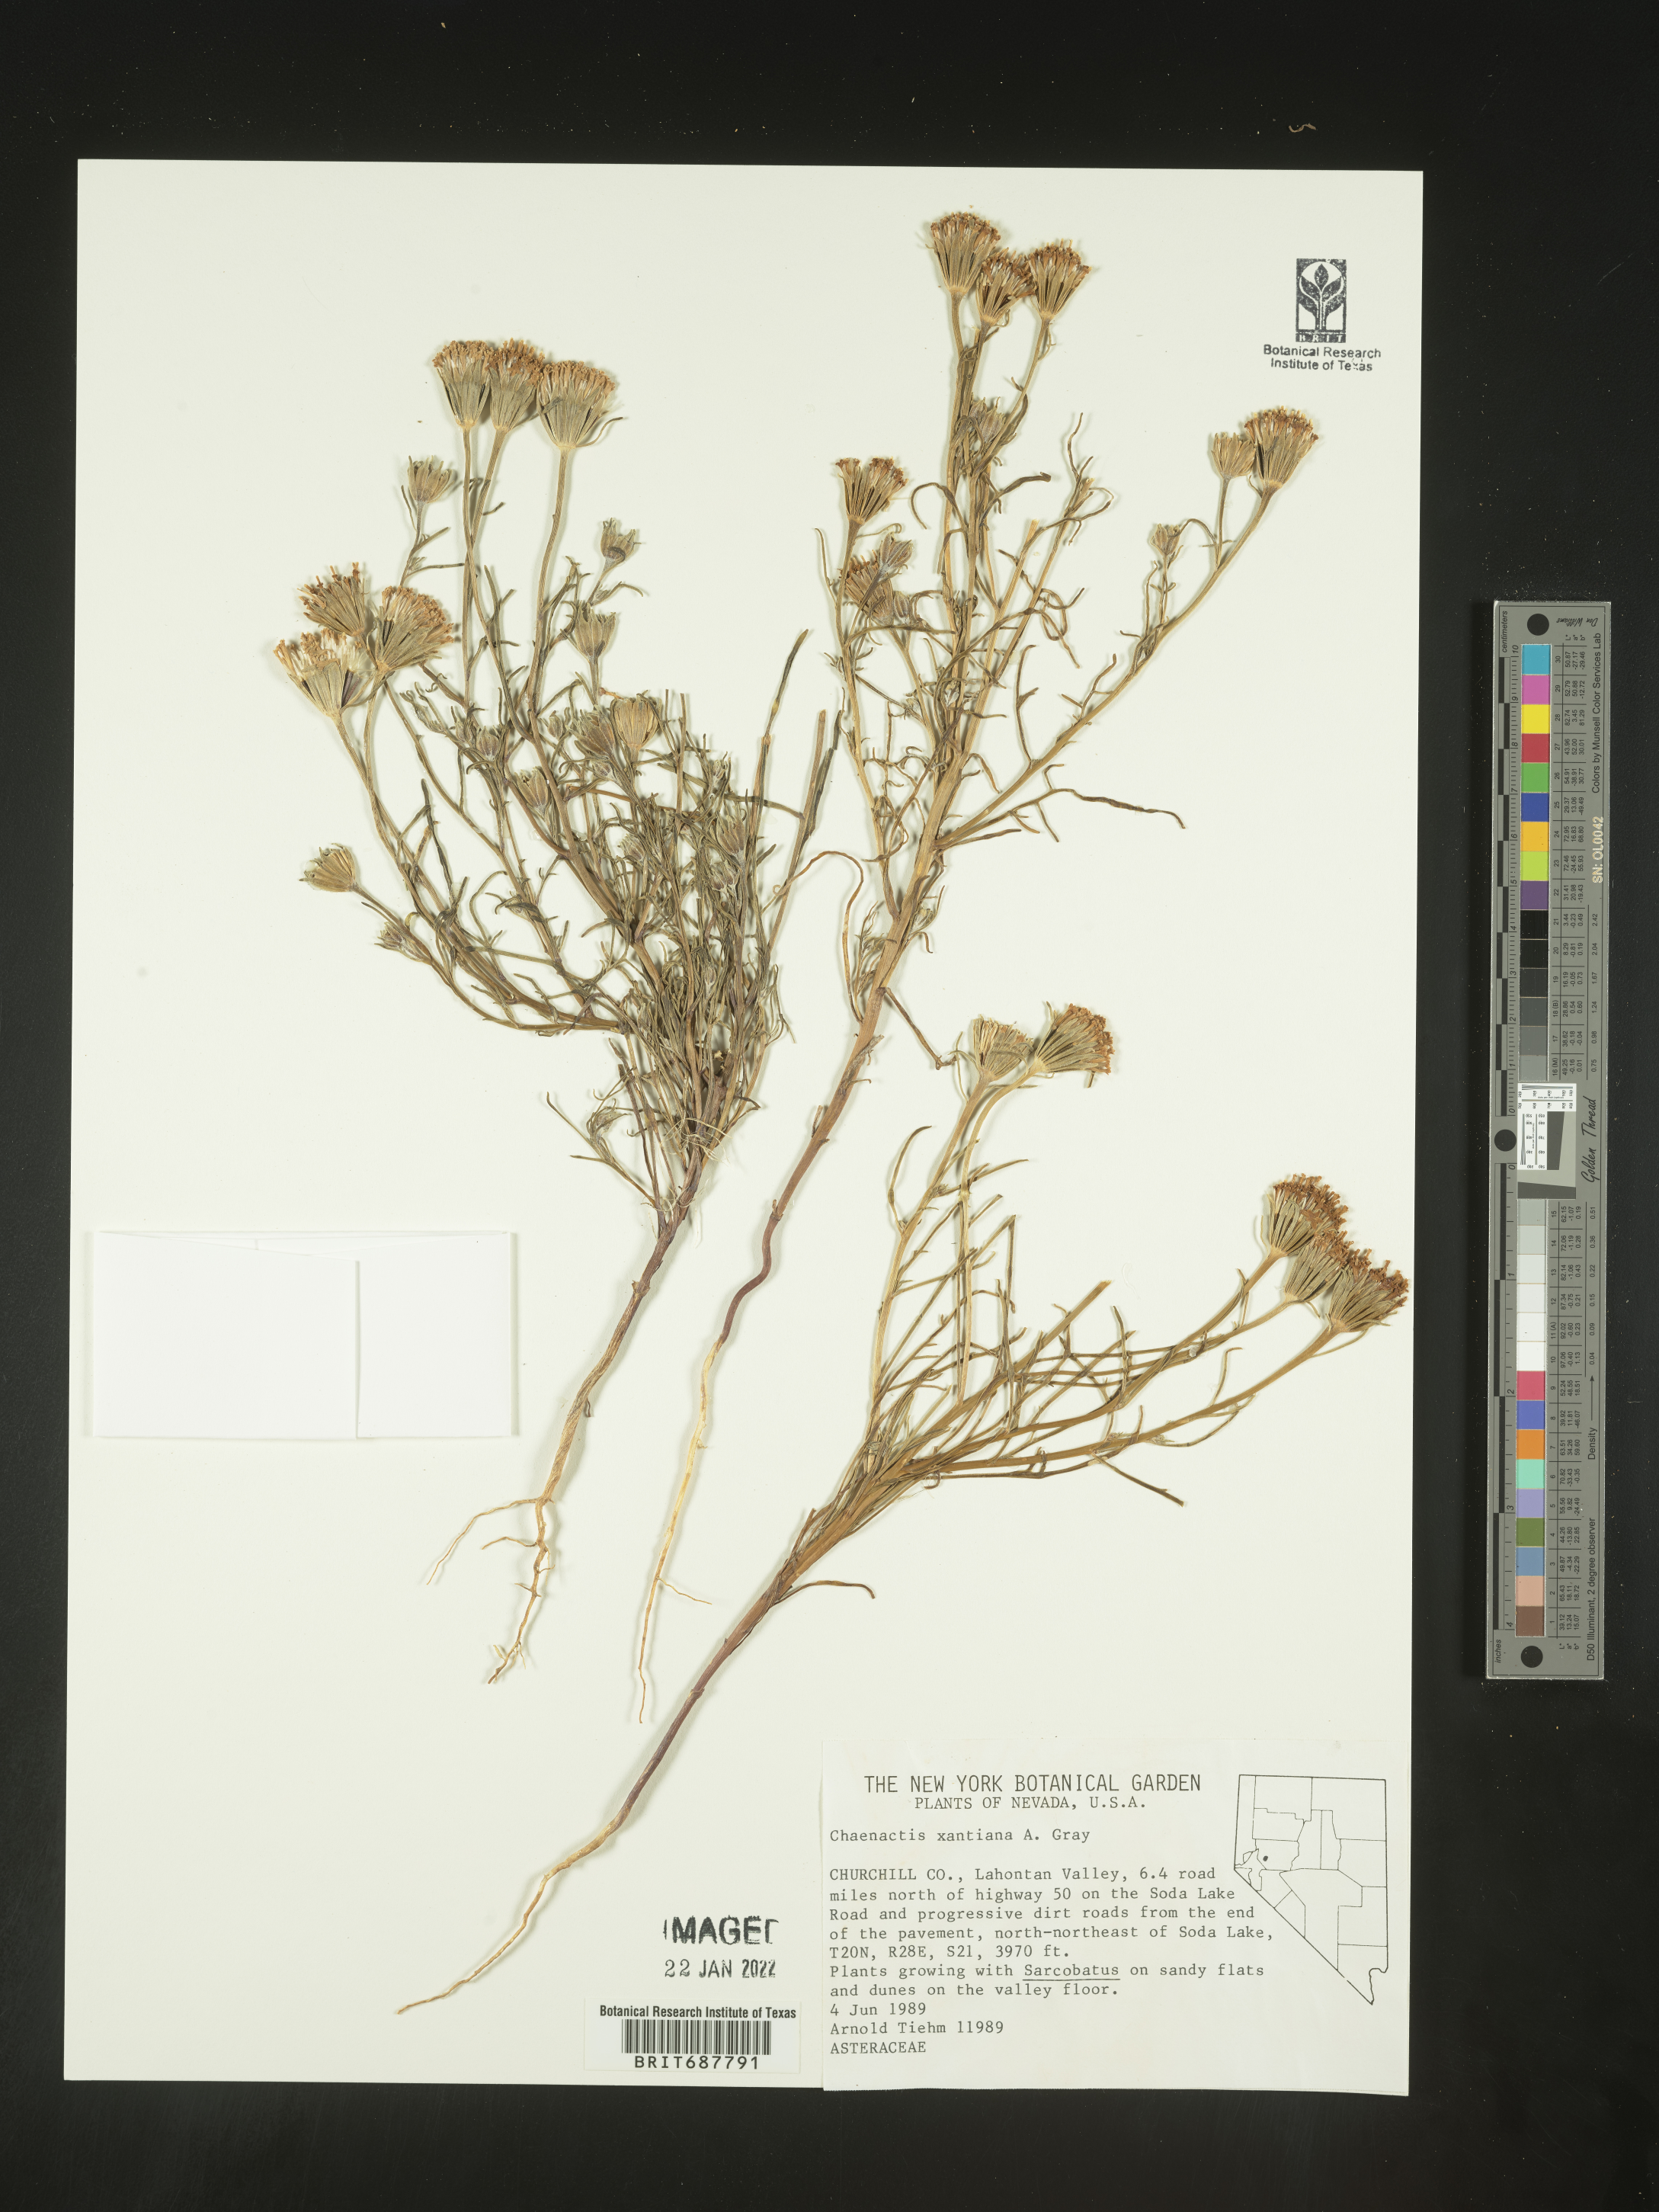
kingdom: Plantae
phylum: Tracheophyta
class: Magnoliopsida
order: Asterales
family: Asteraceae
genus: Chaenactis
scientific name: Chaenactis xantiana
